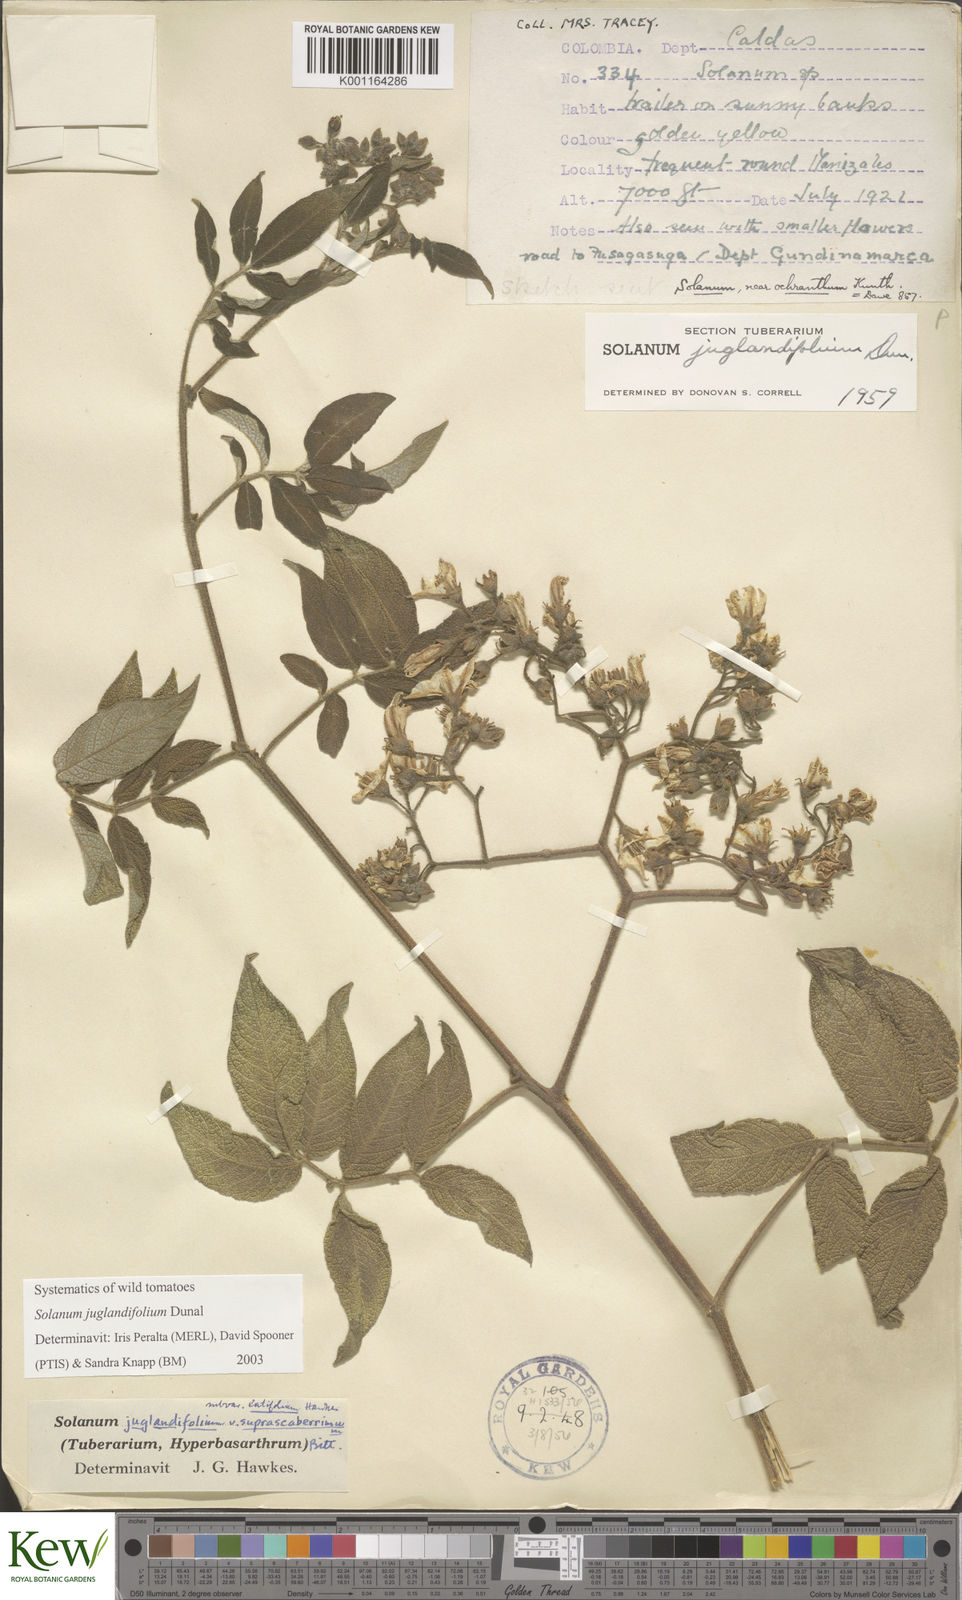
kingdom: Plantae
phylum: Tracheophyta
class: Magnoliopsida
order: Solanales
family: Solanaceae
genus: Solanum
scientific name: Solanum juglandifolium
